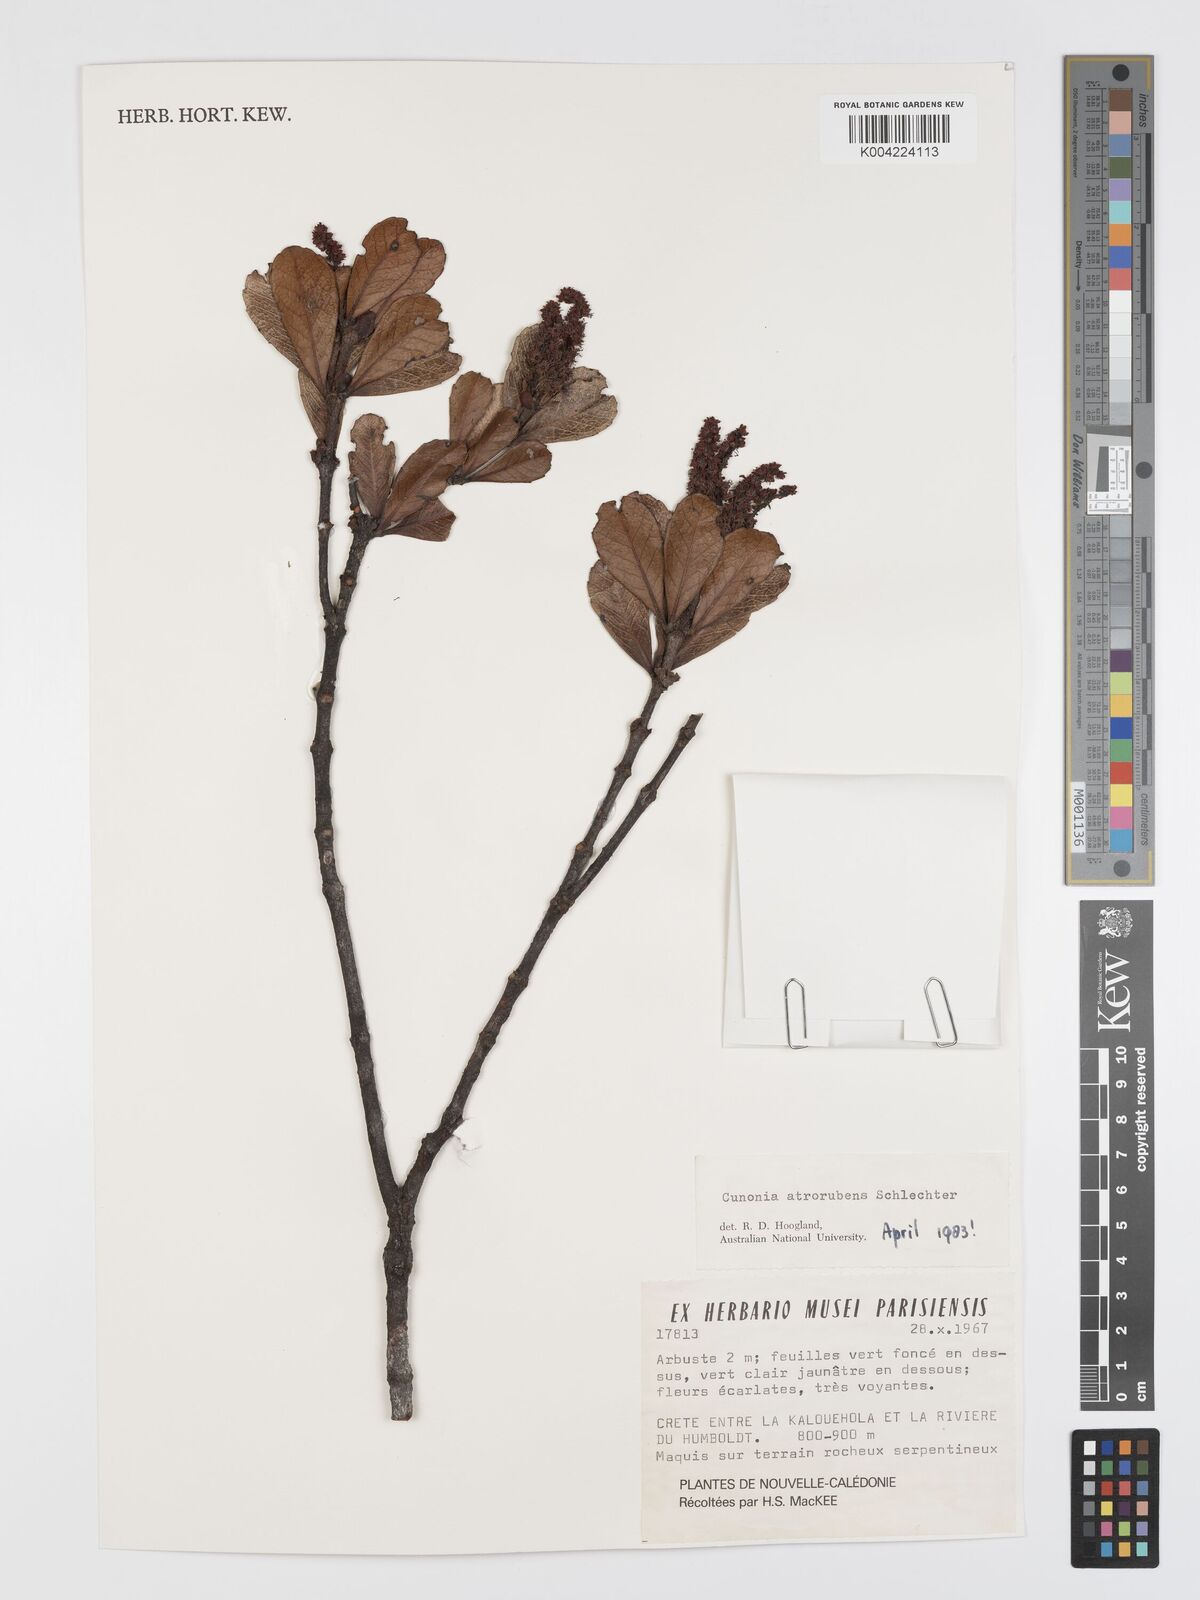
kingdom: Plantae
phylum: Tracheophyta
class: Magnoliopsida
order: Oxalidales
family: Cunoniaceae
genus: Cunonia
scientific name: Cunonia atrorubens
